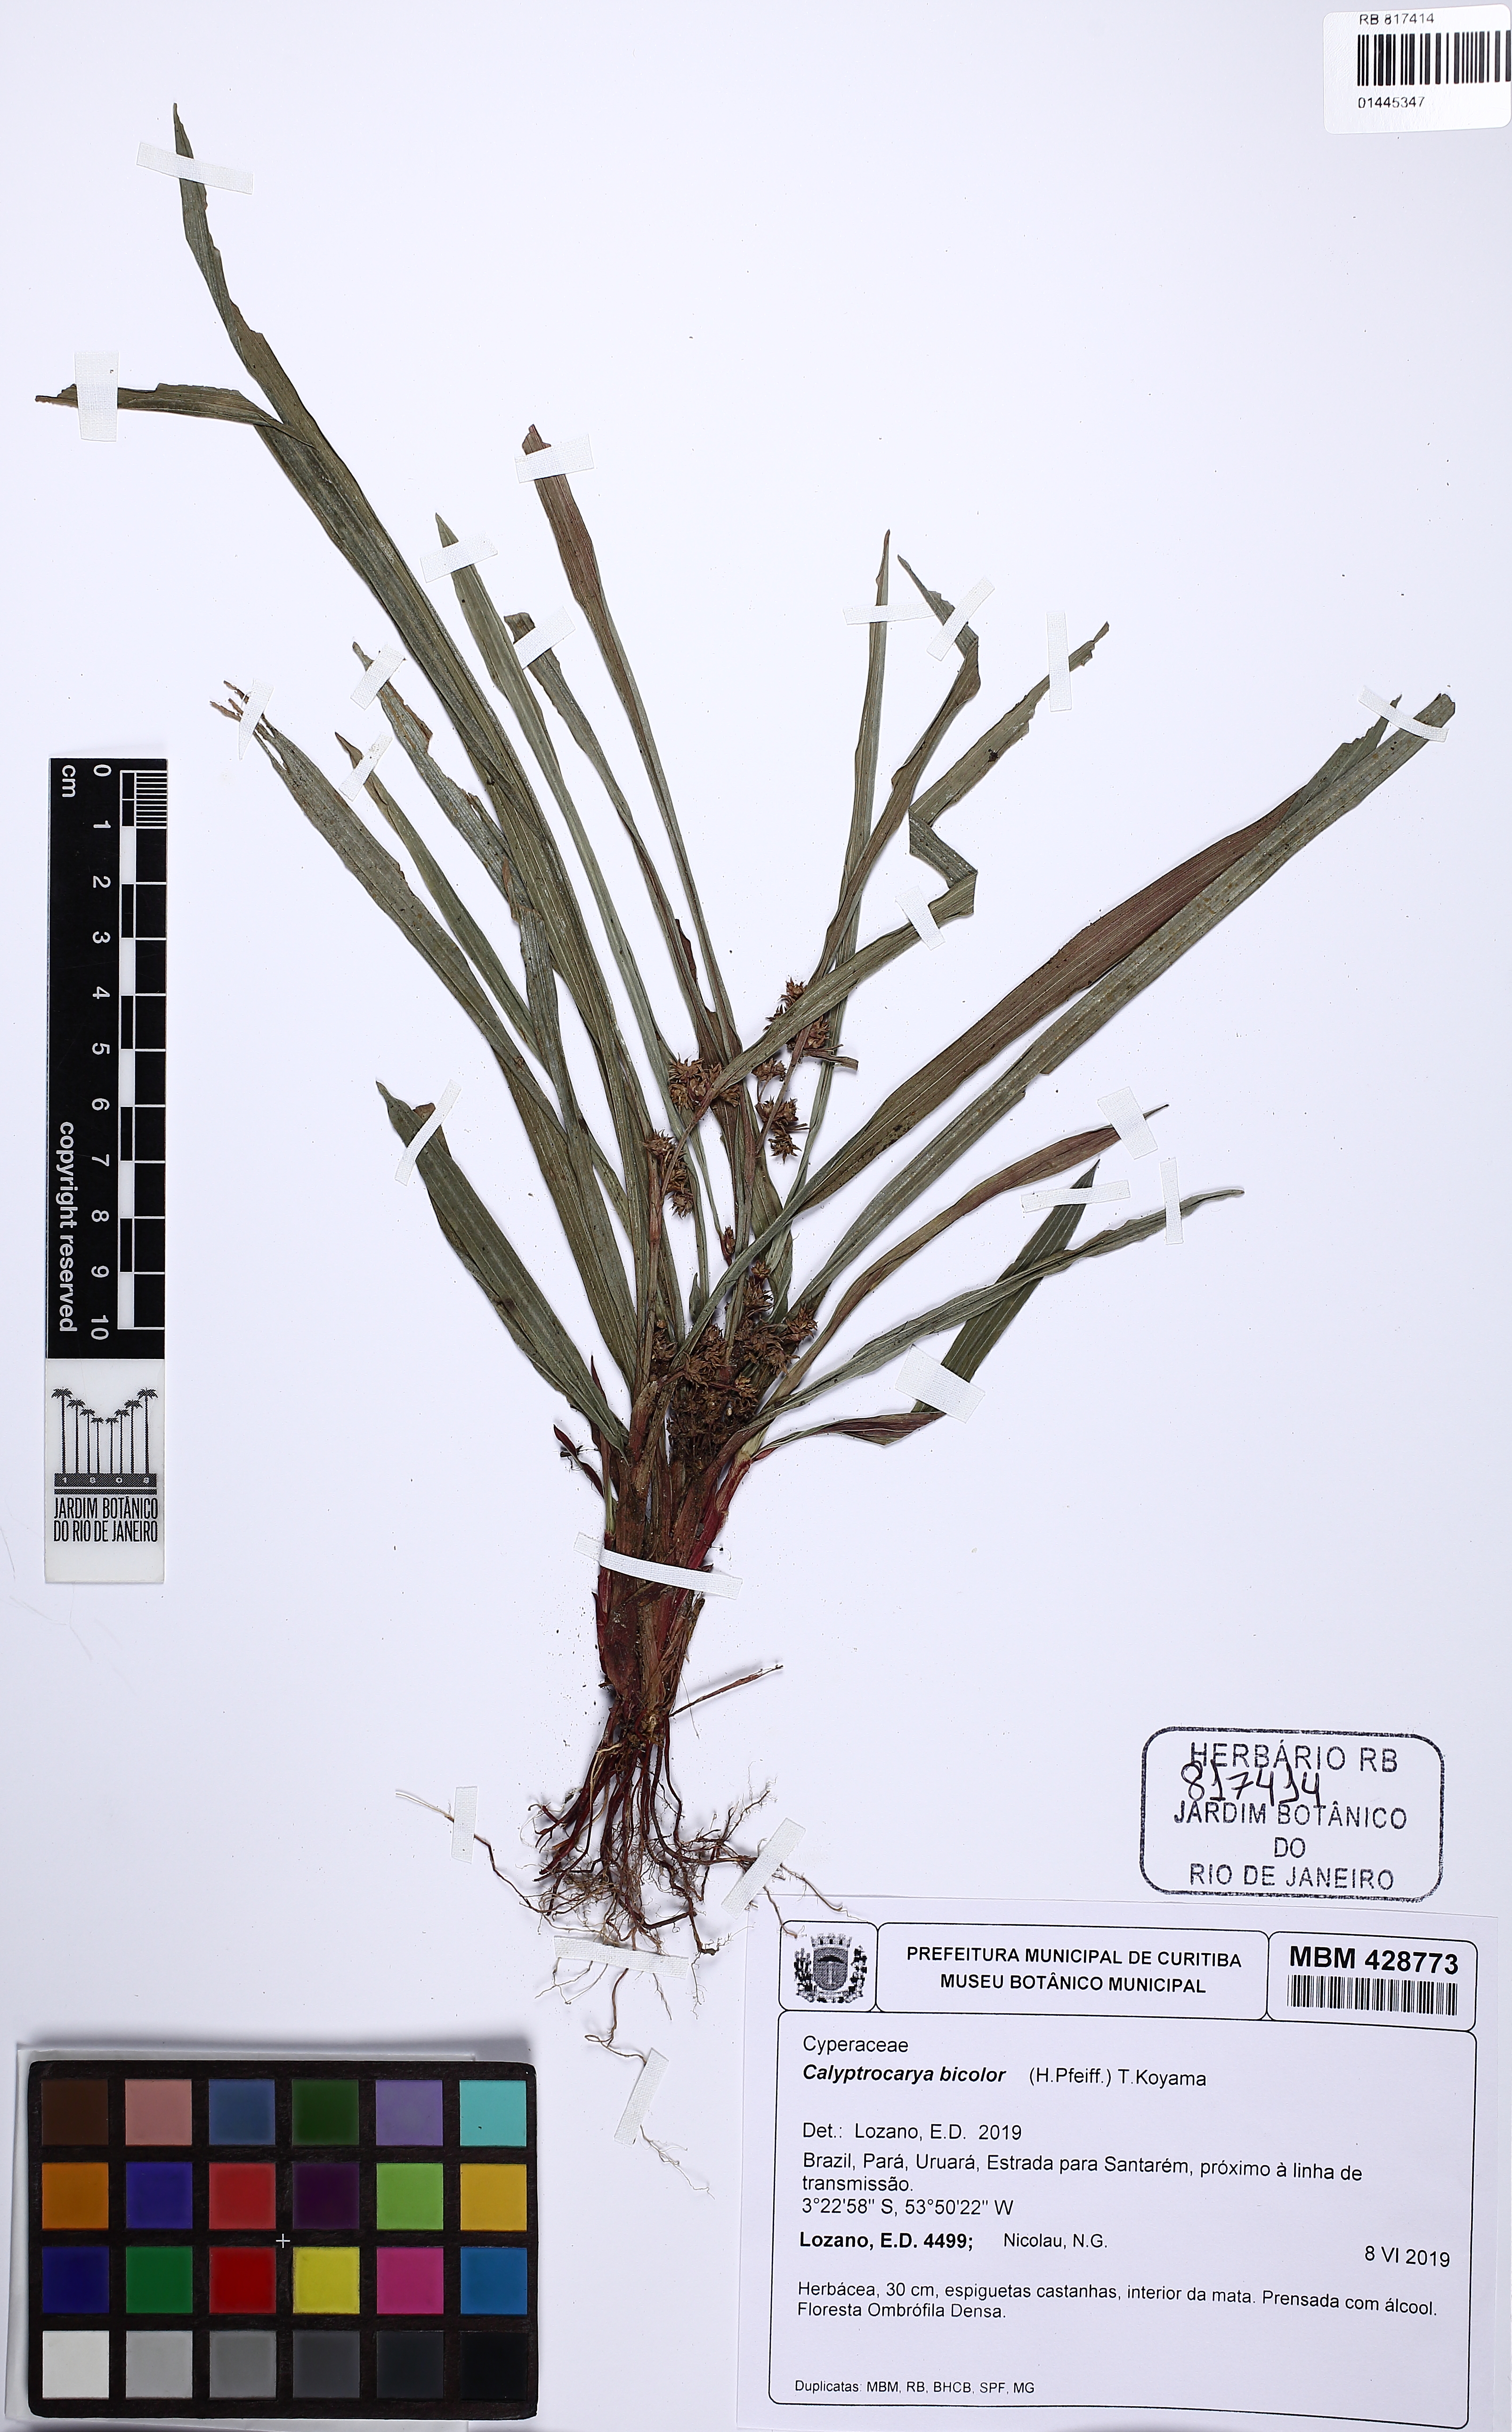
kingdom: Plantae
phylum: Tracheophyta
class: Liliopsida
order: Poales
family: Cyperaceae
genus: Calyptrocarya
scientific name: Calyptrocarya bicolor
